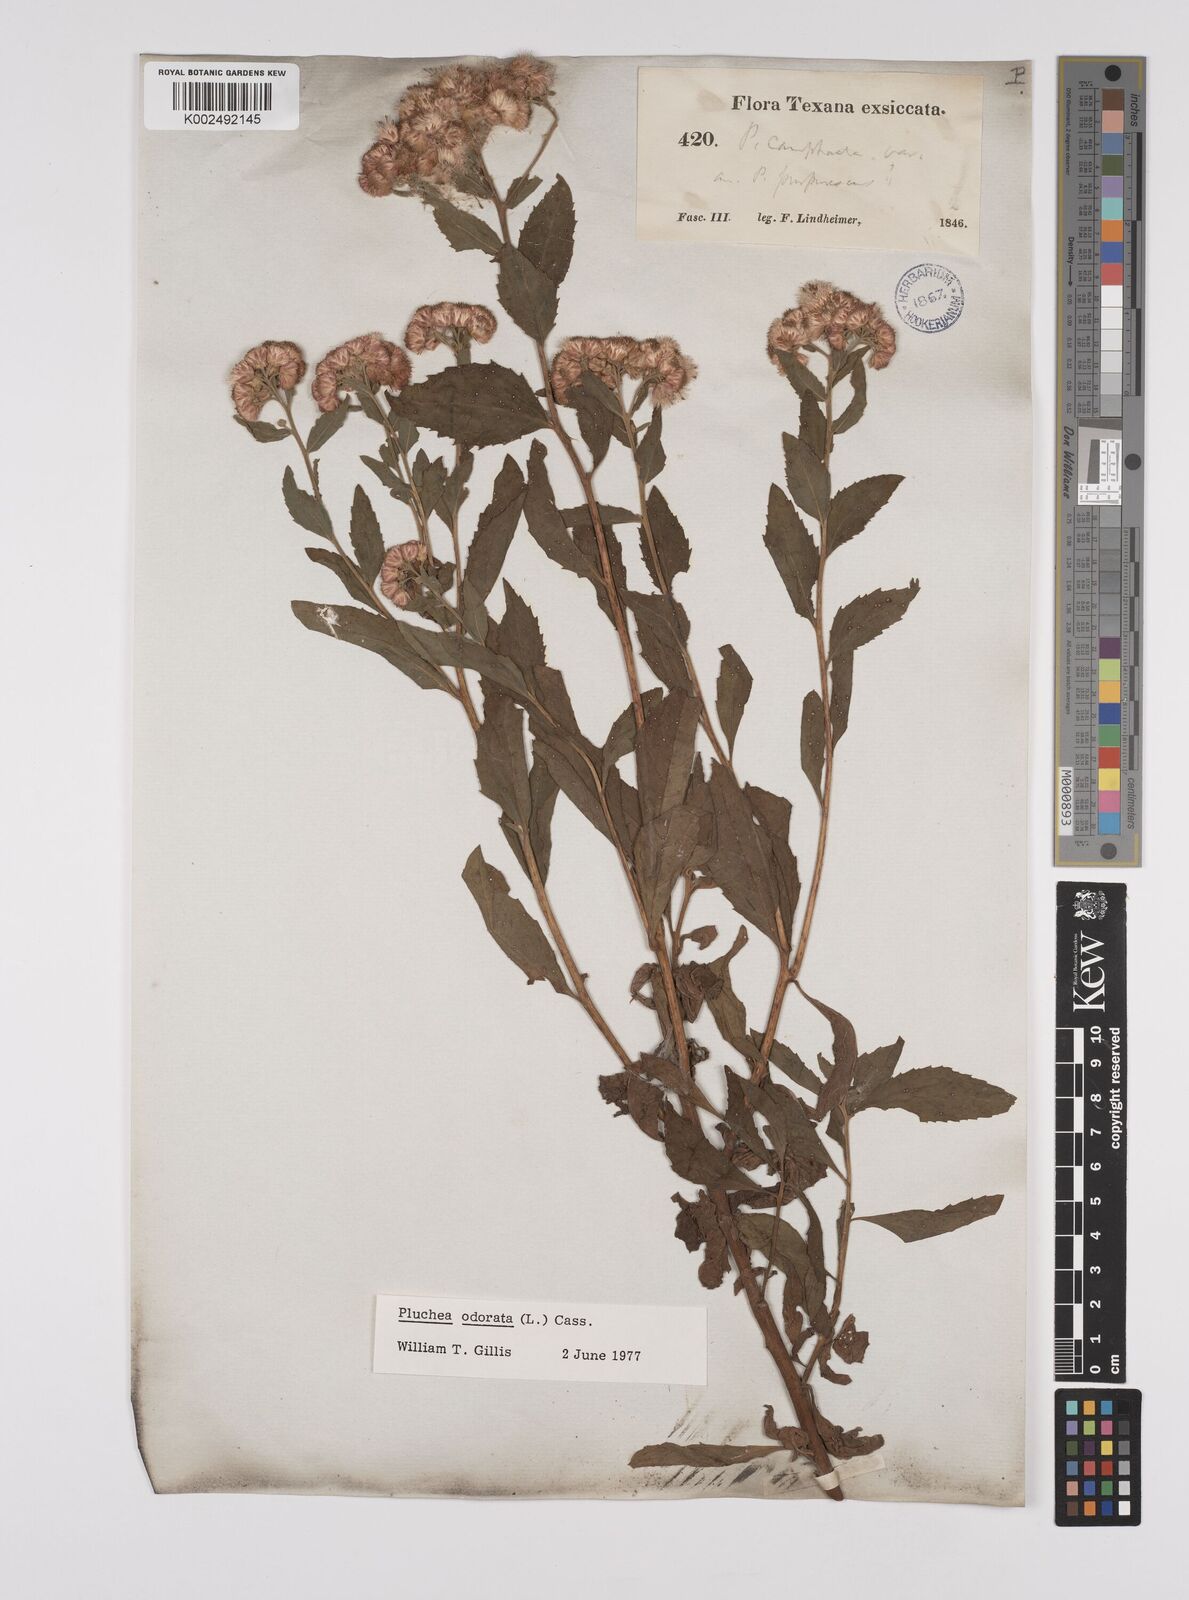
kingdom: Plantae
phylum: Tracheophyta
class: Magnoliopsida
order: Asterales
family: Asteraceae
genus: Pluchea
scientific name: Pluchea odorata
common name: Saltmarsh fleabane
